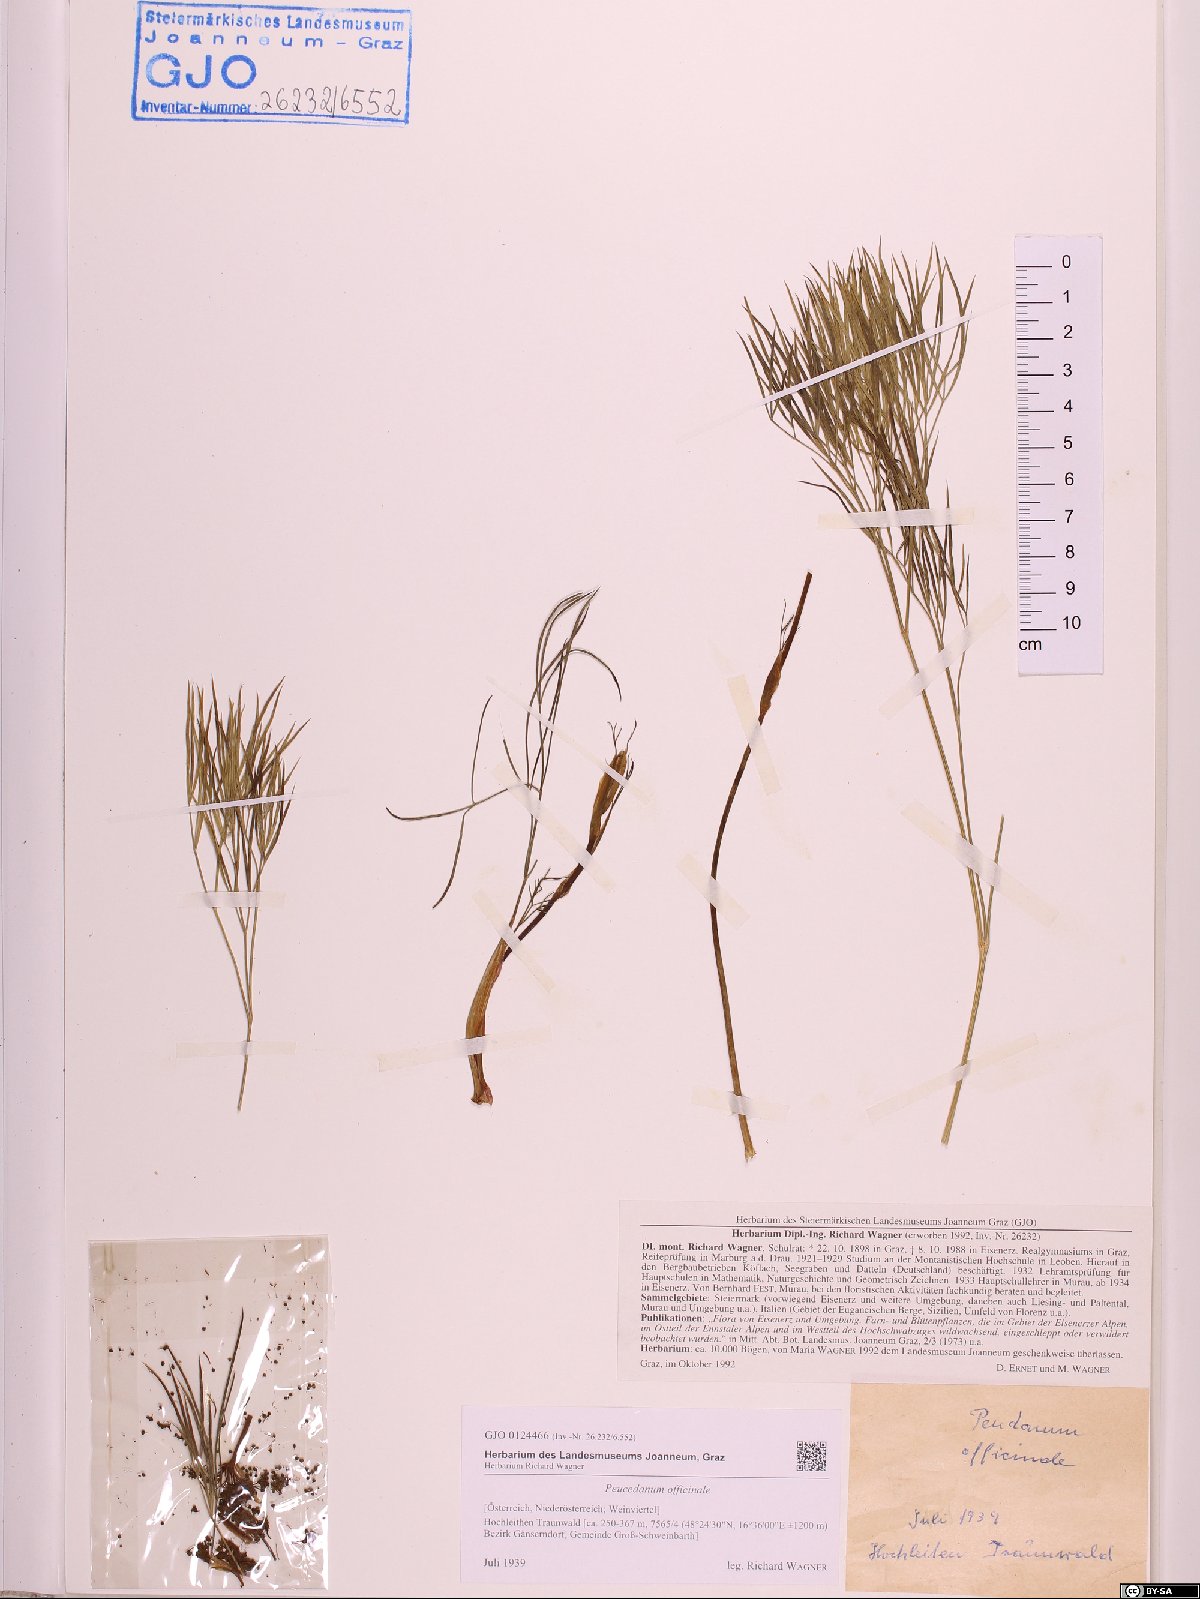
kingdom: Plantae
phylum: Tracheophyta
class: Magnoliopsida
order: Apiales
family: Apiaceae
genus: Peucedanum
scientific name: Peucedanum officinale
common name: Sulphurweed
